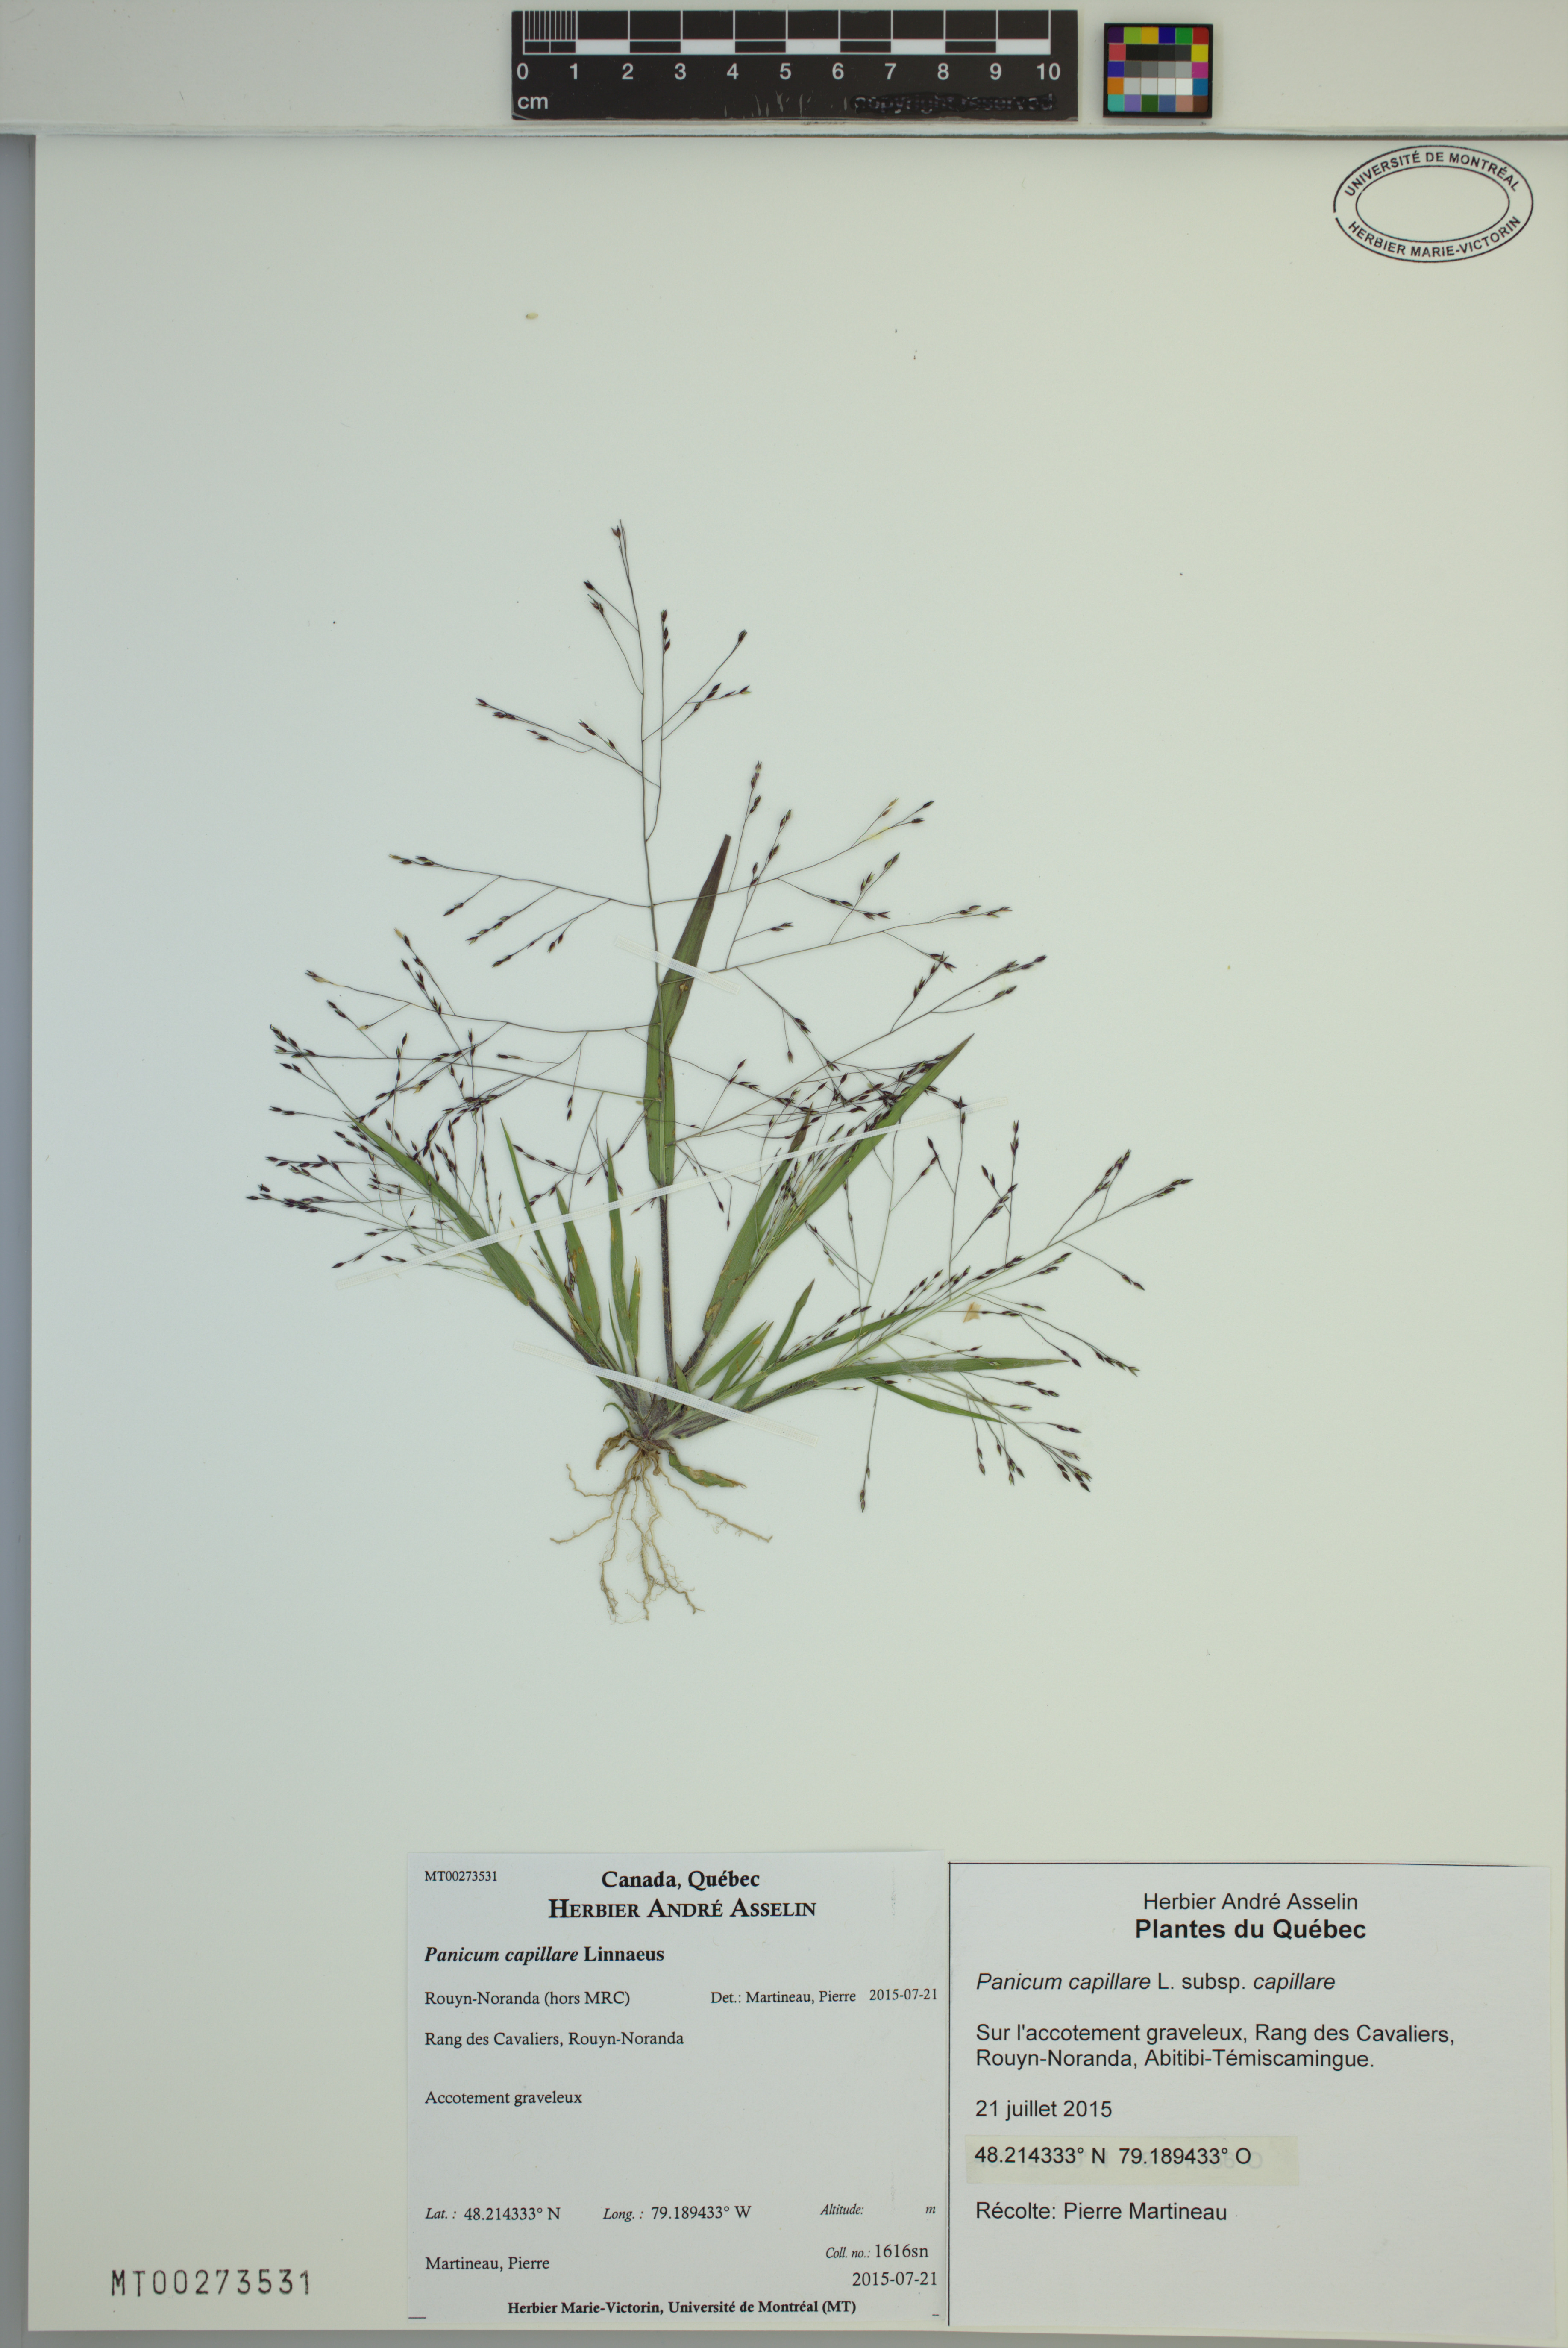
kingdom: Plantae
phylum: Tracheophyta
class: Liliopsida
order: Poales
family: Poaceae
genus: Panicum
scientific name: Panicum capillare
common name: Witch-grass
